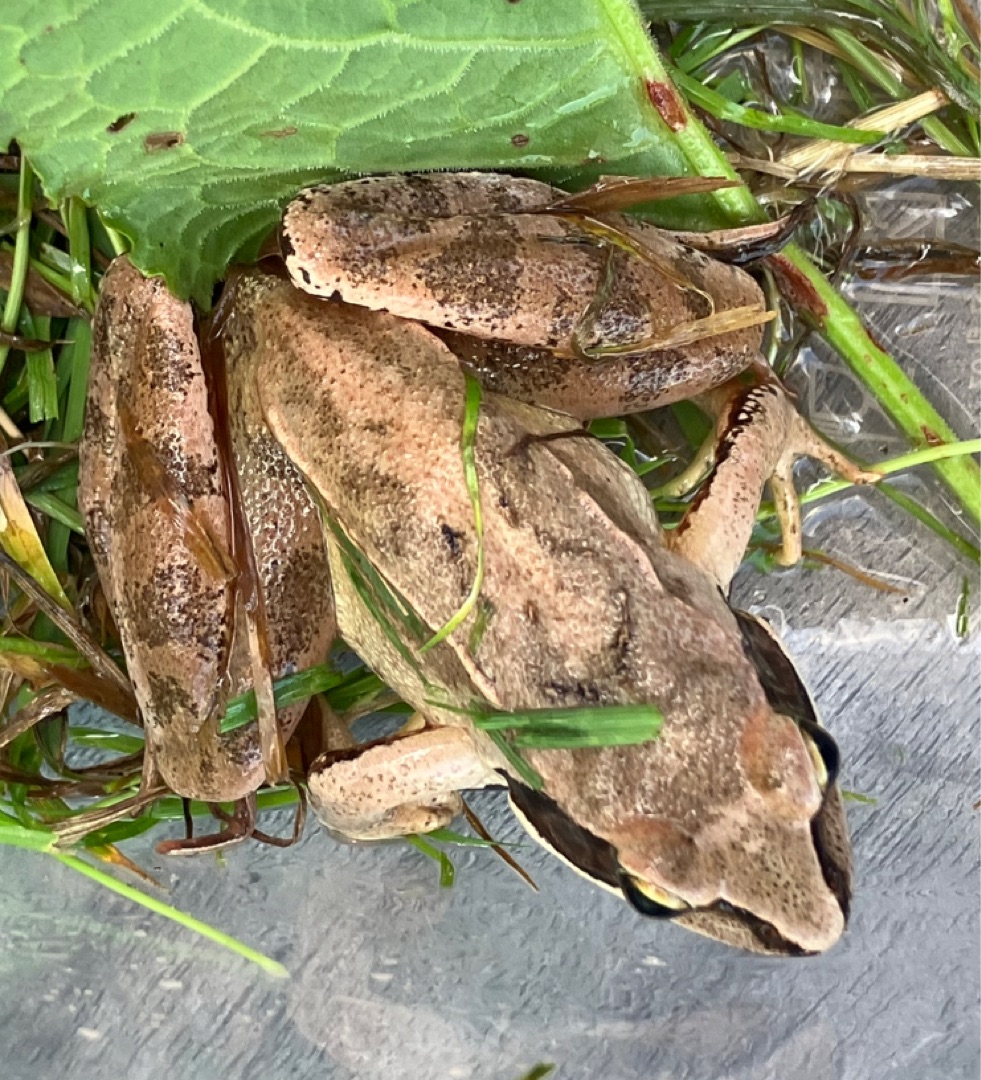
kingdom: Animalia
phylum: Chordata
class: Amphibia
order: Anura
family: Ranidae
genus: Rana
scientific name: Rana dalmatina
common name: Springfrø
